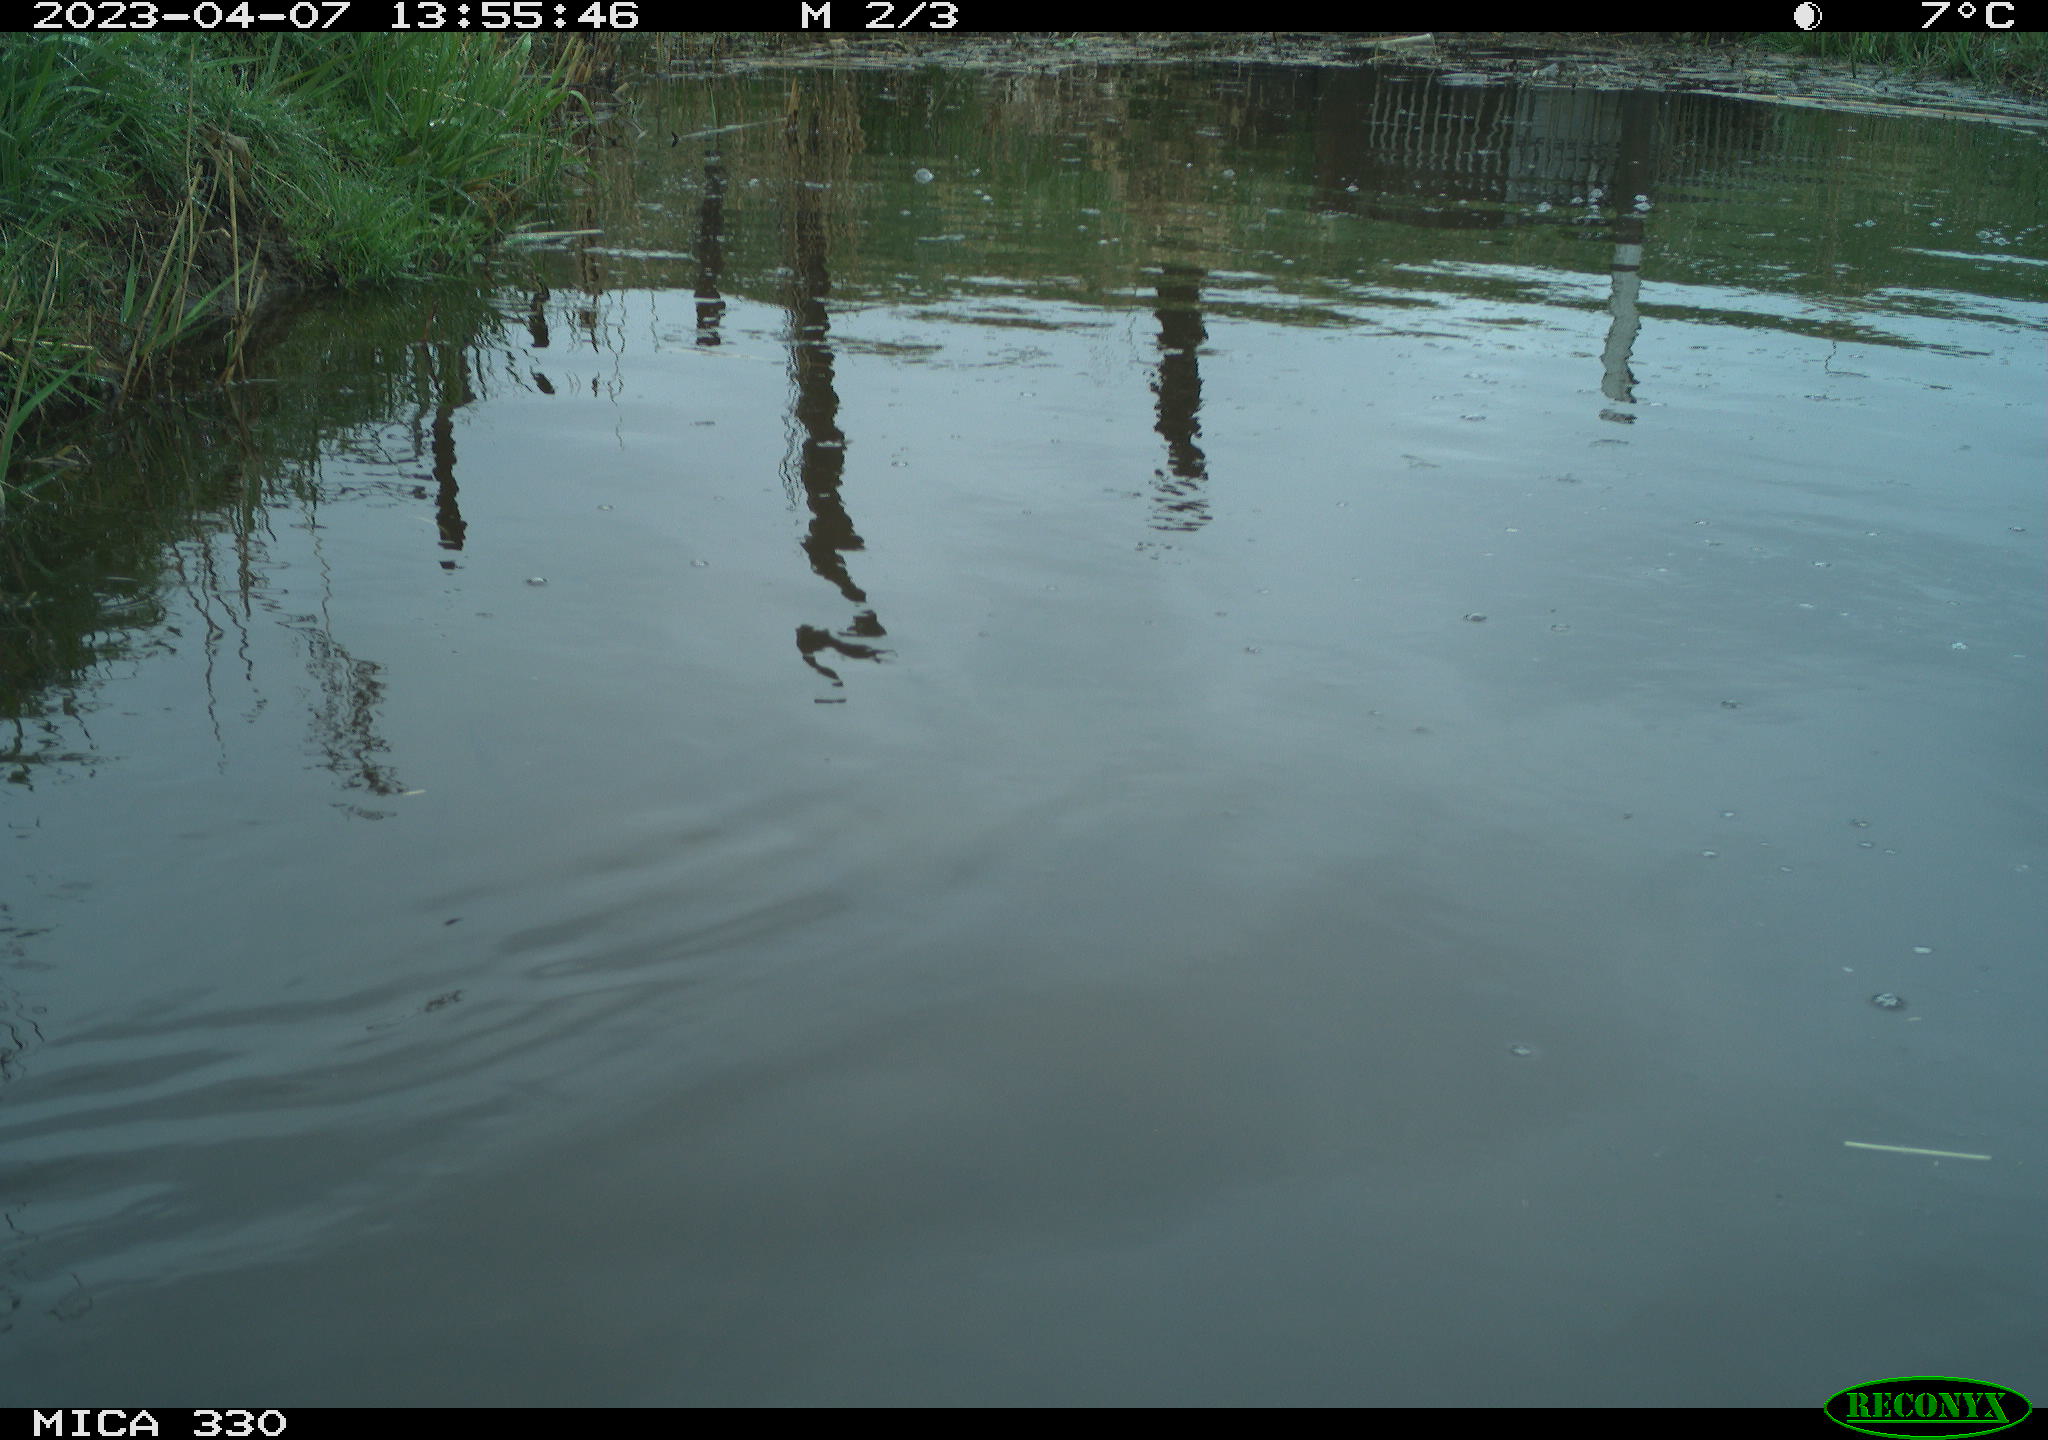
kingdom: Animalia
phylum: Chordata
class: Aves
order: Anseriformes
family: Anatidae
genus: Anas
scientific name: Anas platyrhynchos
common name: Mallard
